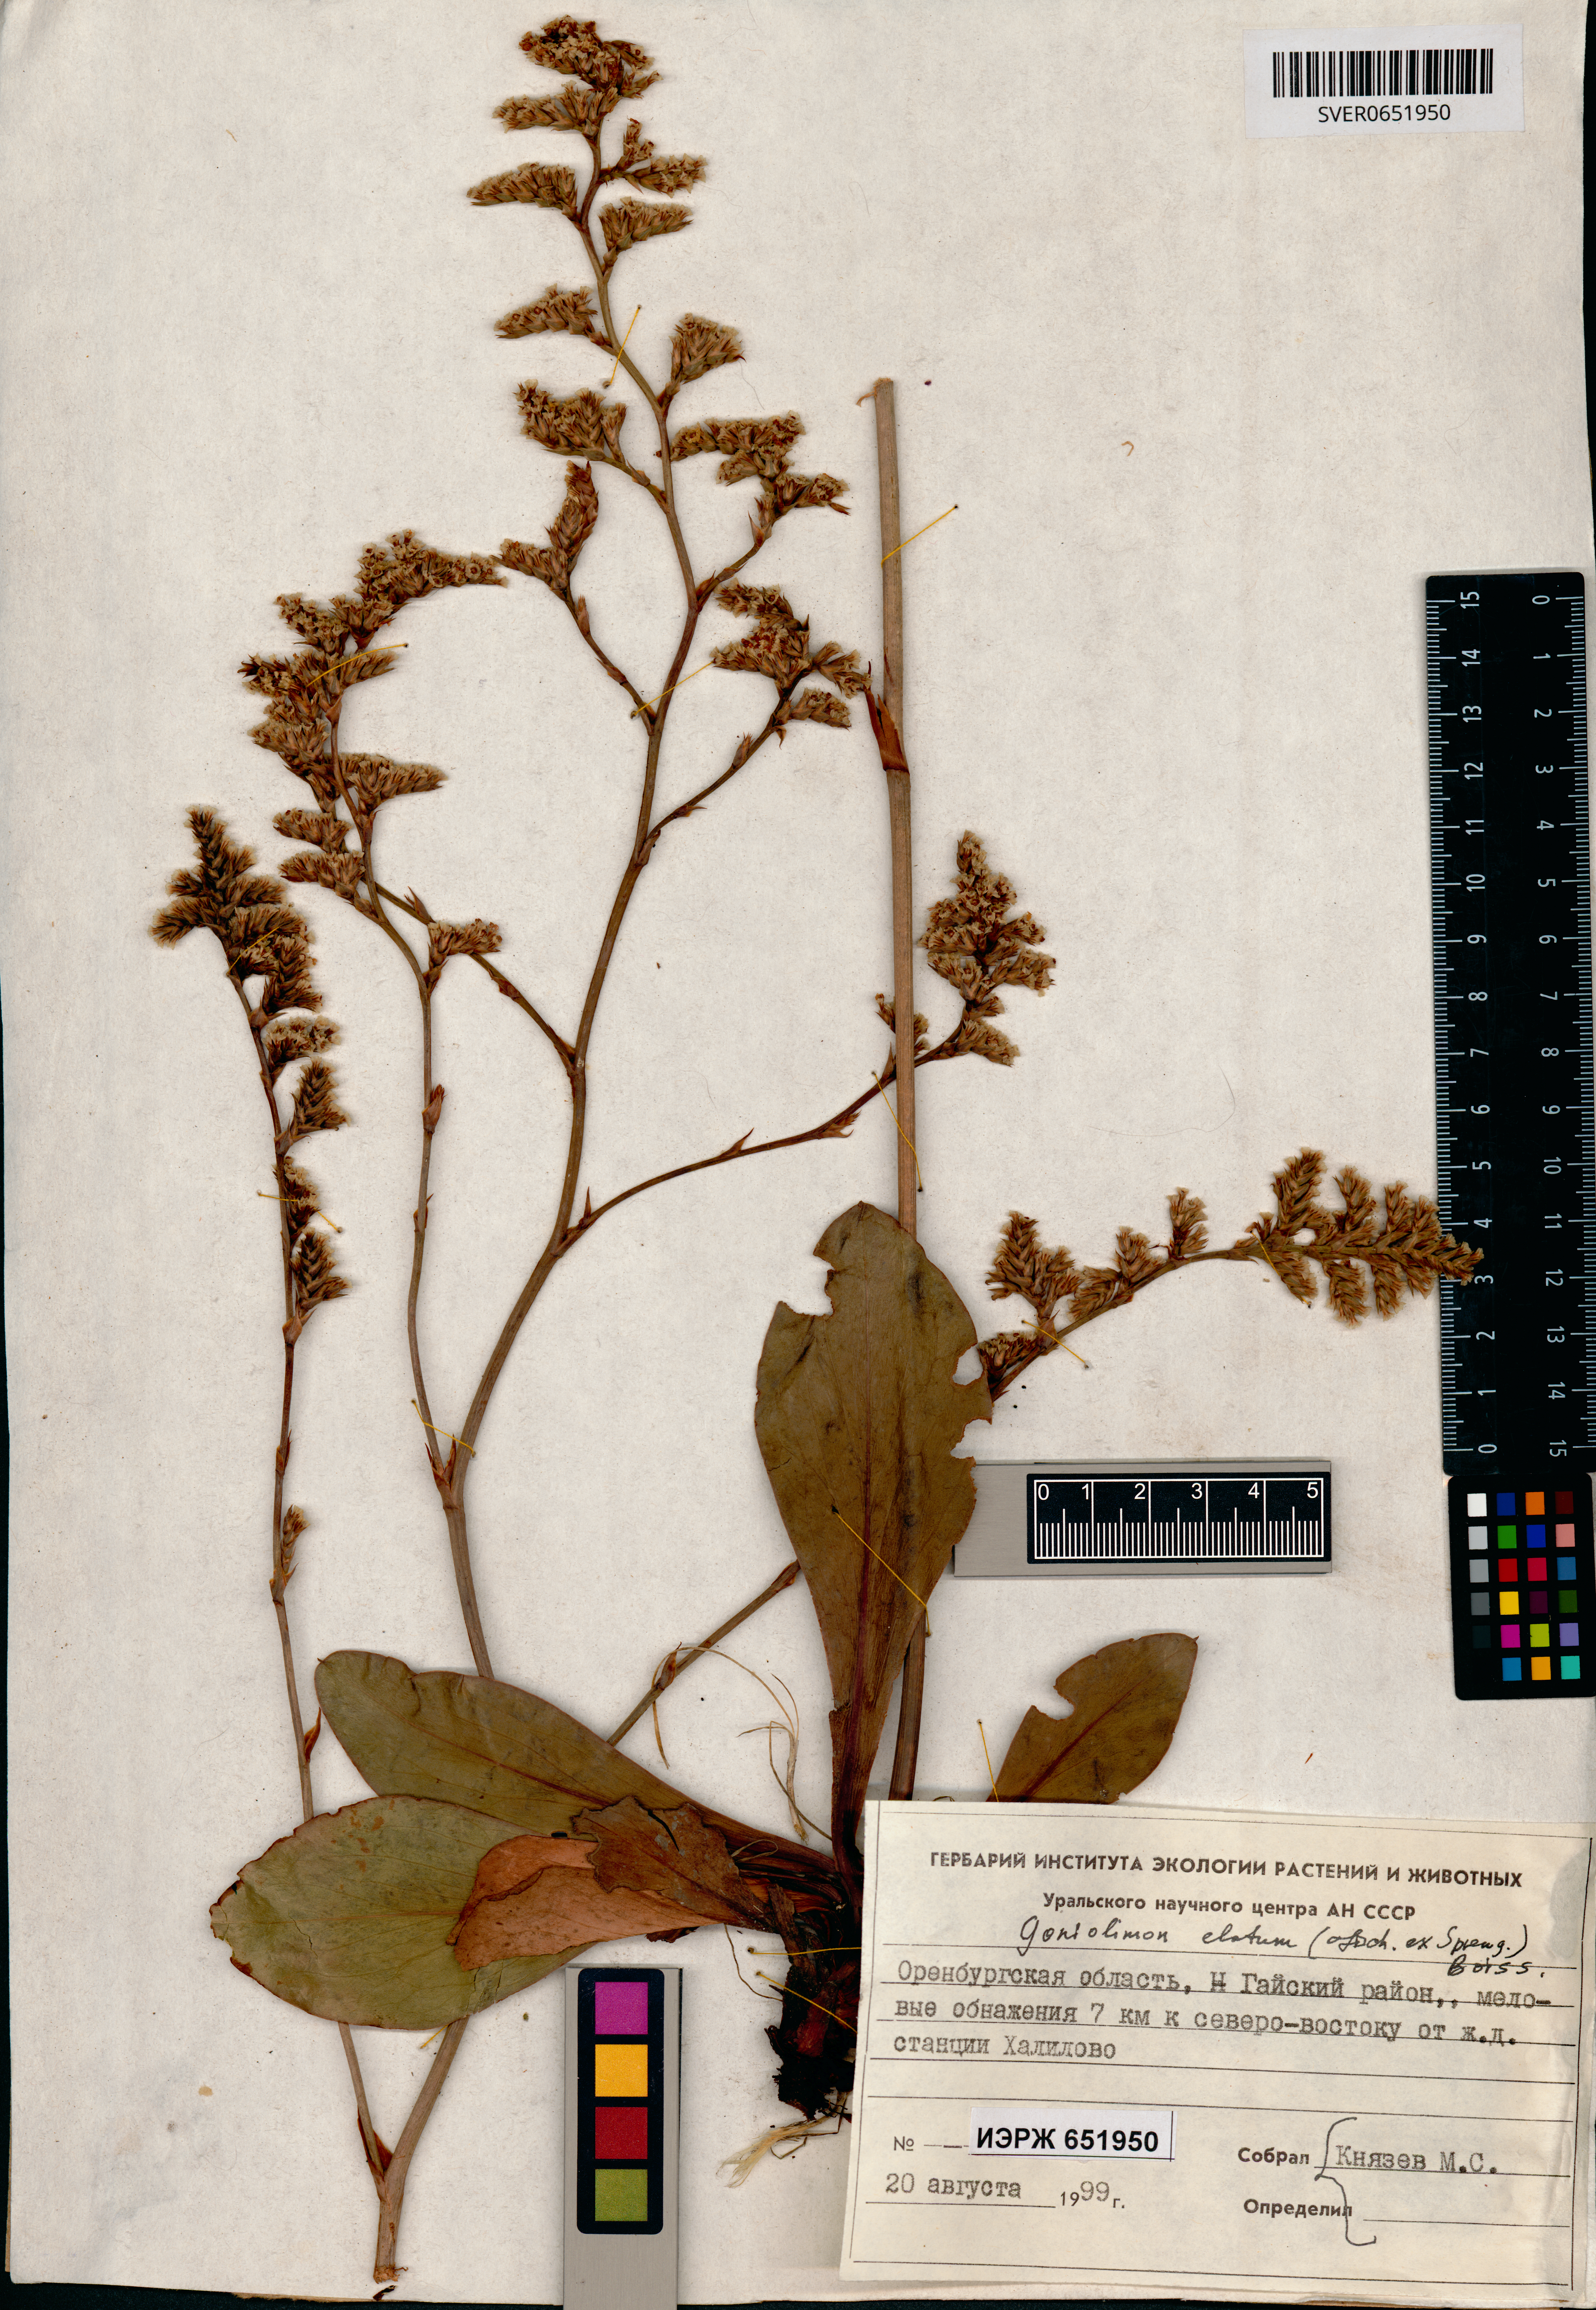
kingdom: Plantae
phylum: Tracheophyta
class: Magnoliopsida
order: Caryophyllales
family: Plumbaginaceae
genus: Goniolimon
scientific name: Goniolimon elatum
